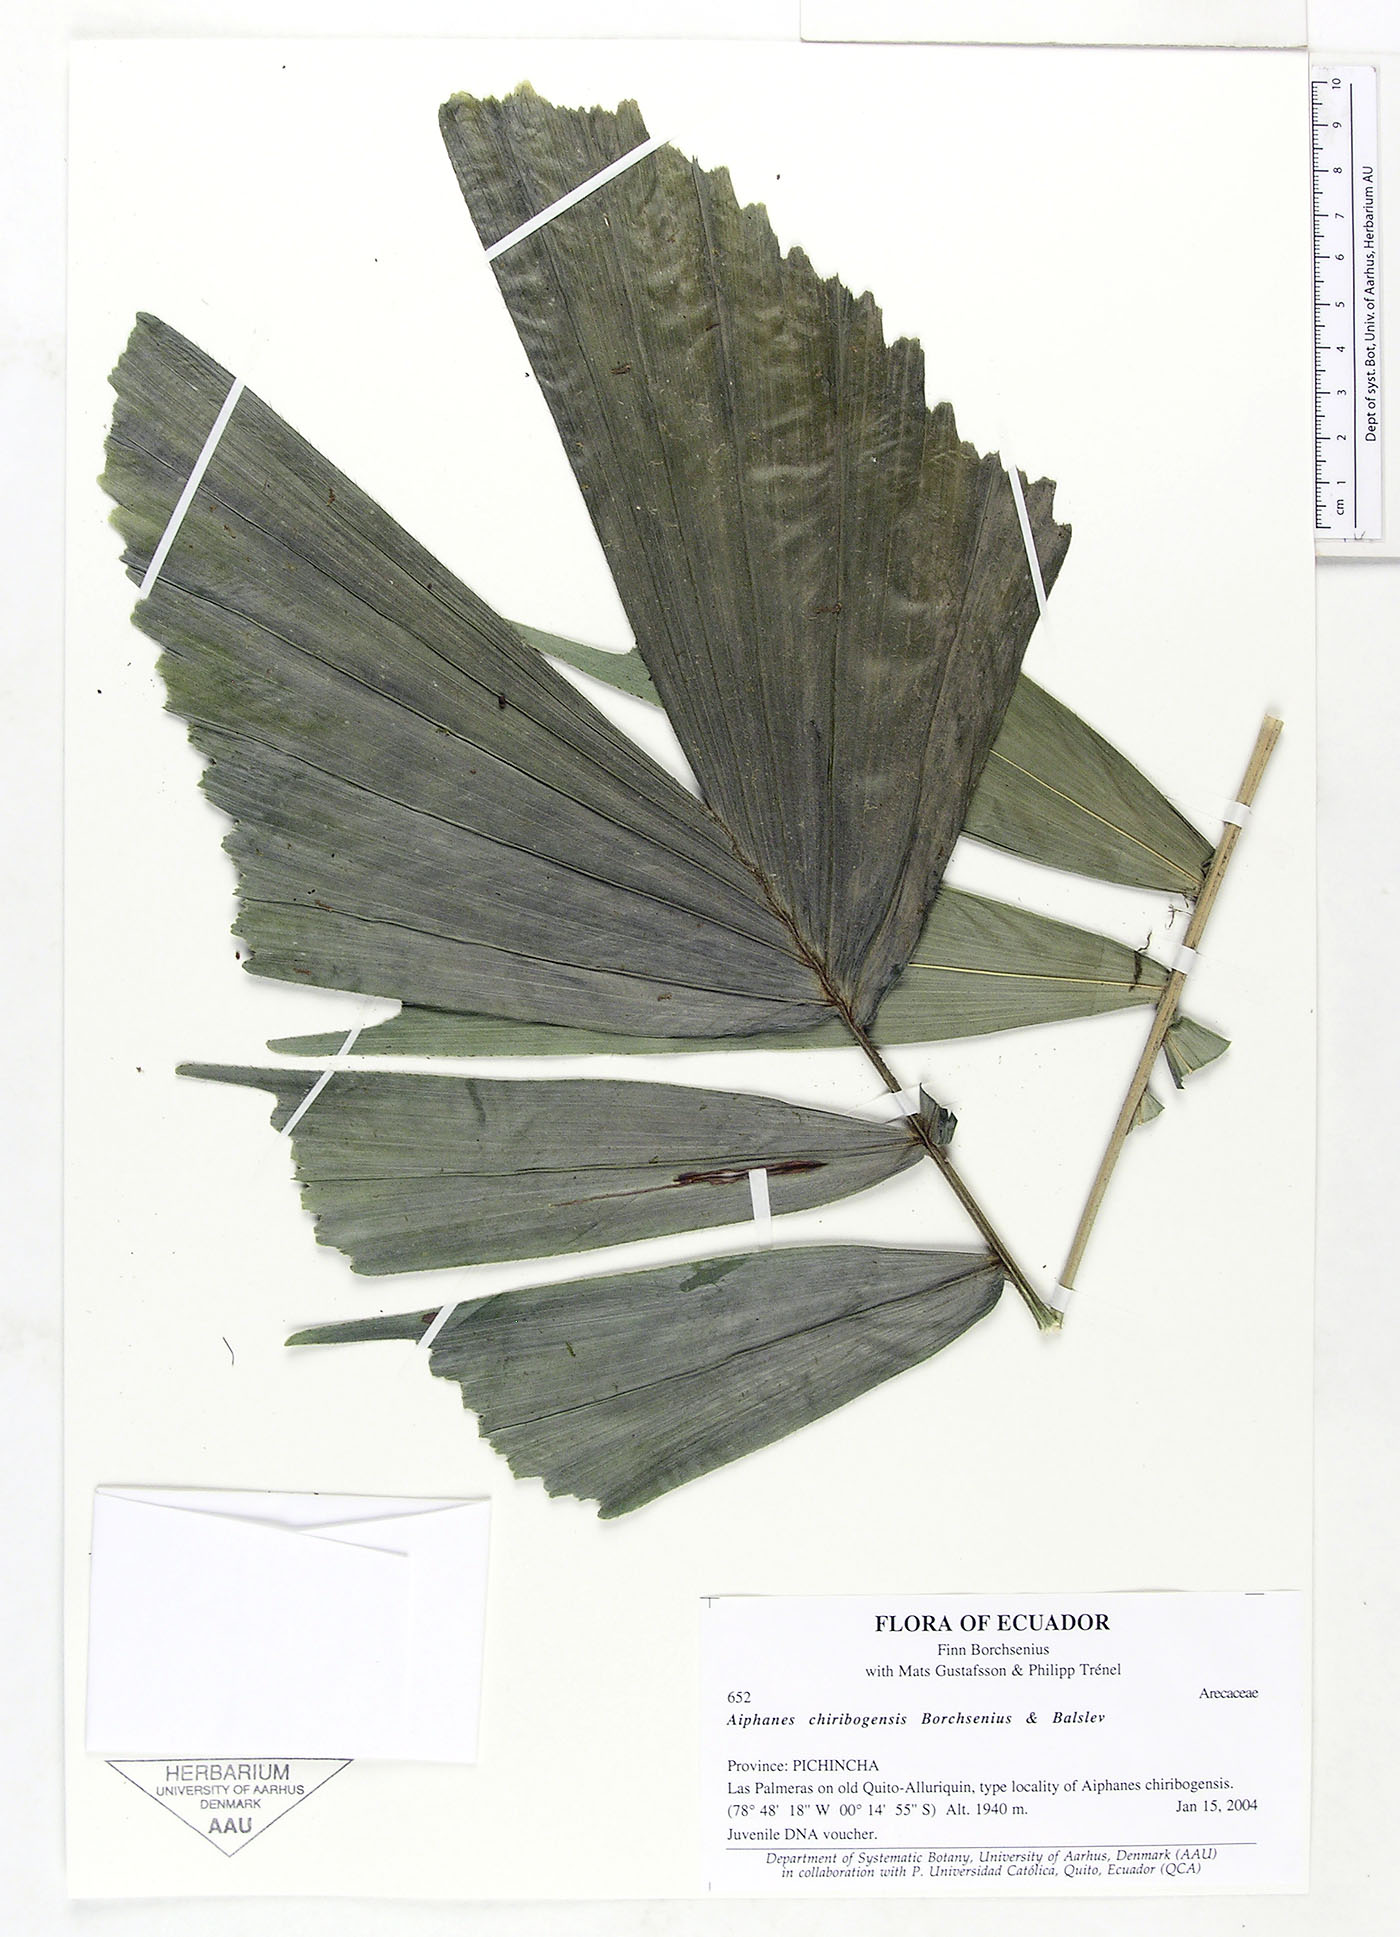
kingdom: Plantae
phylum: Tracheophyta
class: Liliopsida
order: Arecales
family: Arecaceae
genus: Aiphanes
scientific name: Aiphanes chiribogensis
